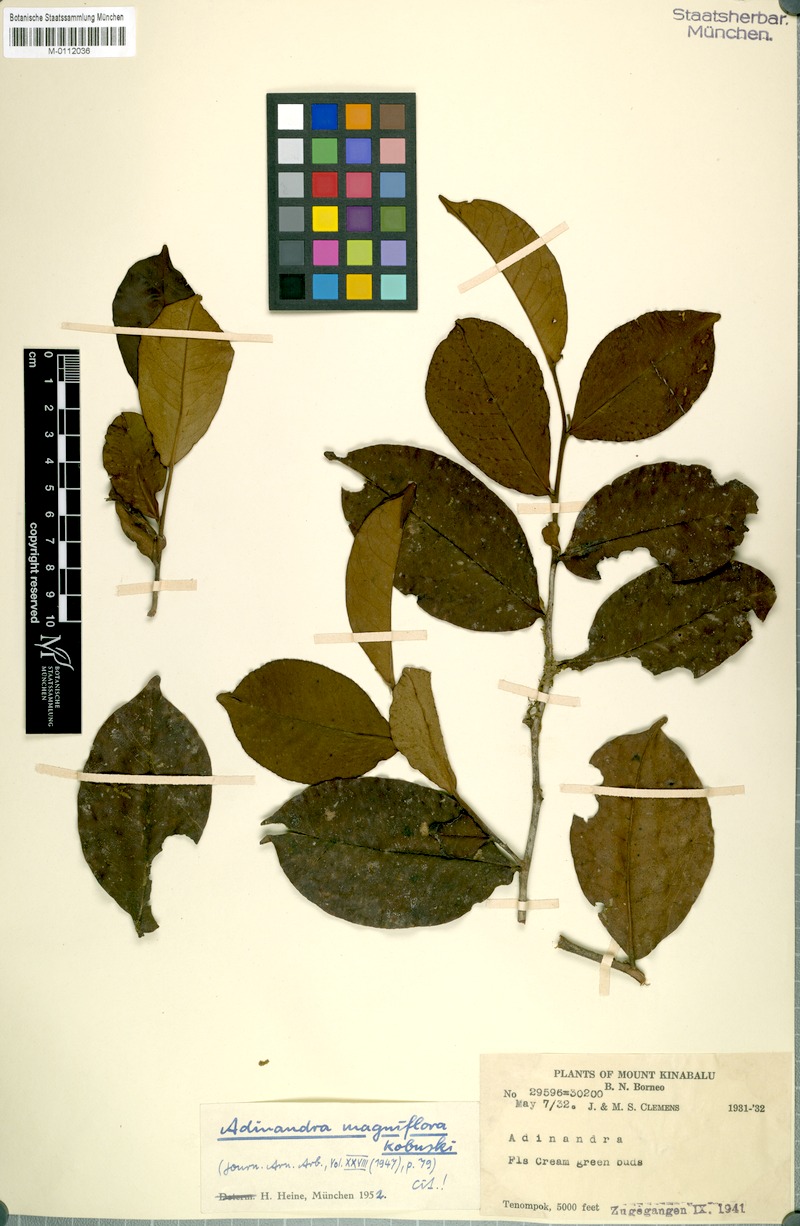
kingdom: Plantae
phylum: Tracheophyta
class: Magnoliopsida
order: Ericales
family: Pentaphylacaceae
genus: Adinandra
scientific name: Adinandra magniflora
